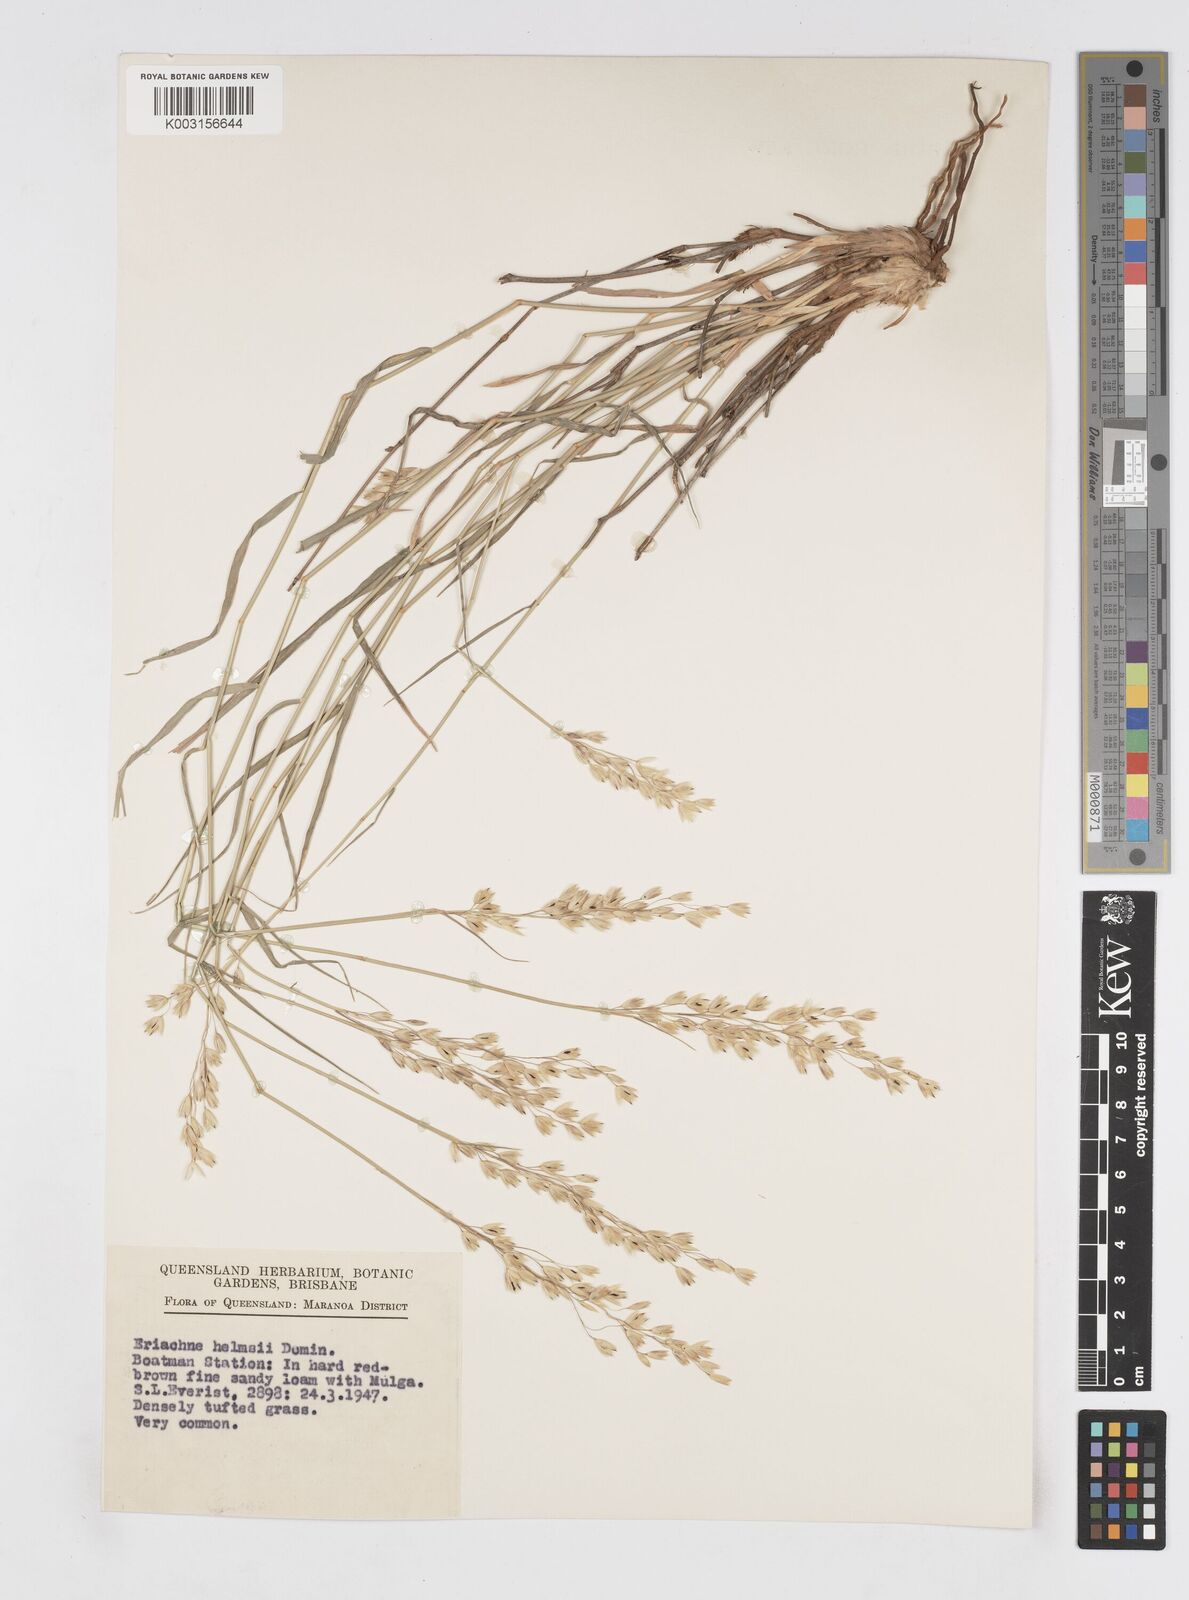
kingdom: Plantae
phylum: Tracheophyta
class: Liliopsida
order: Poales
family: Poaceae
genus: Eriachne
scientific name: Eriachne helmsii
